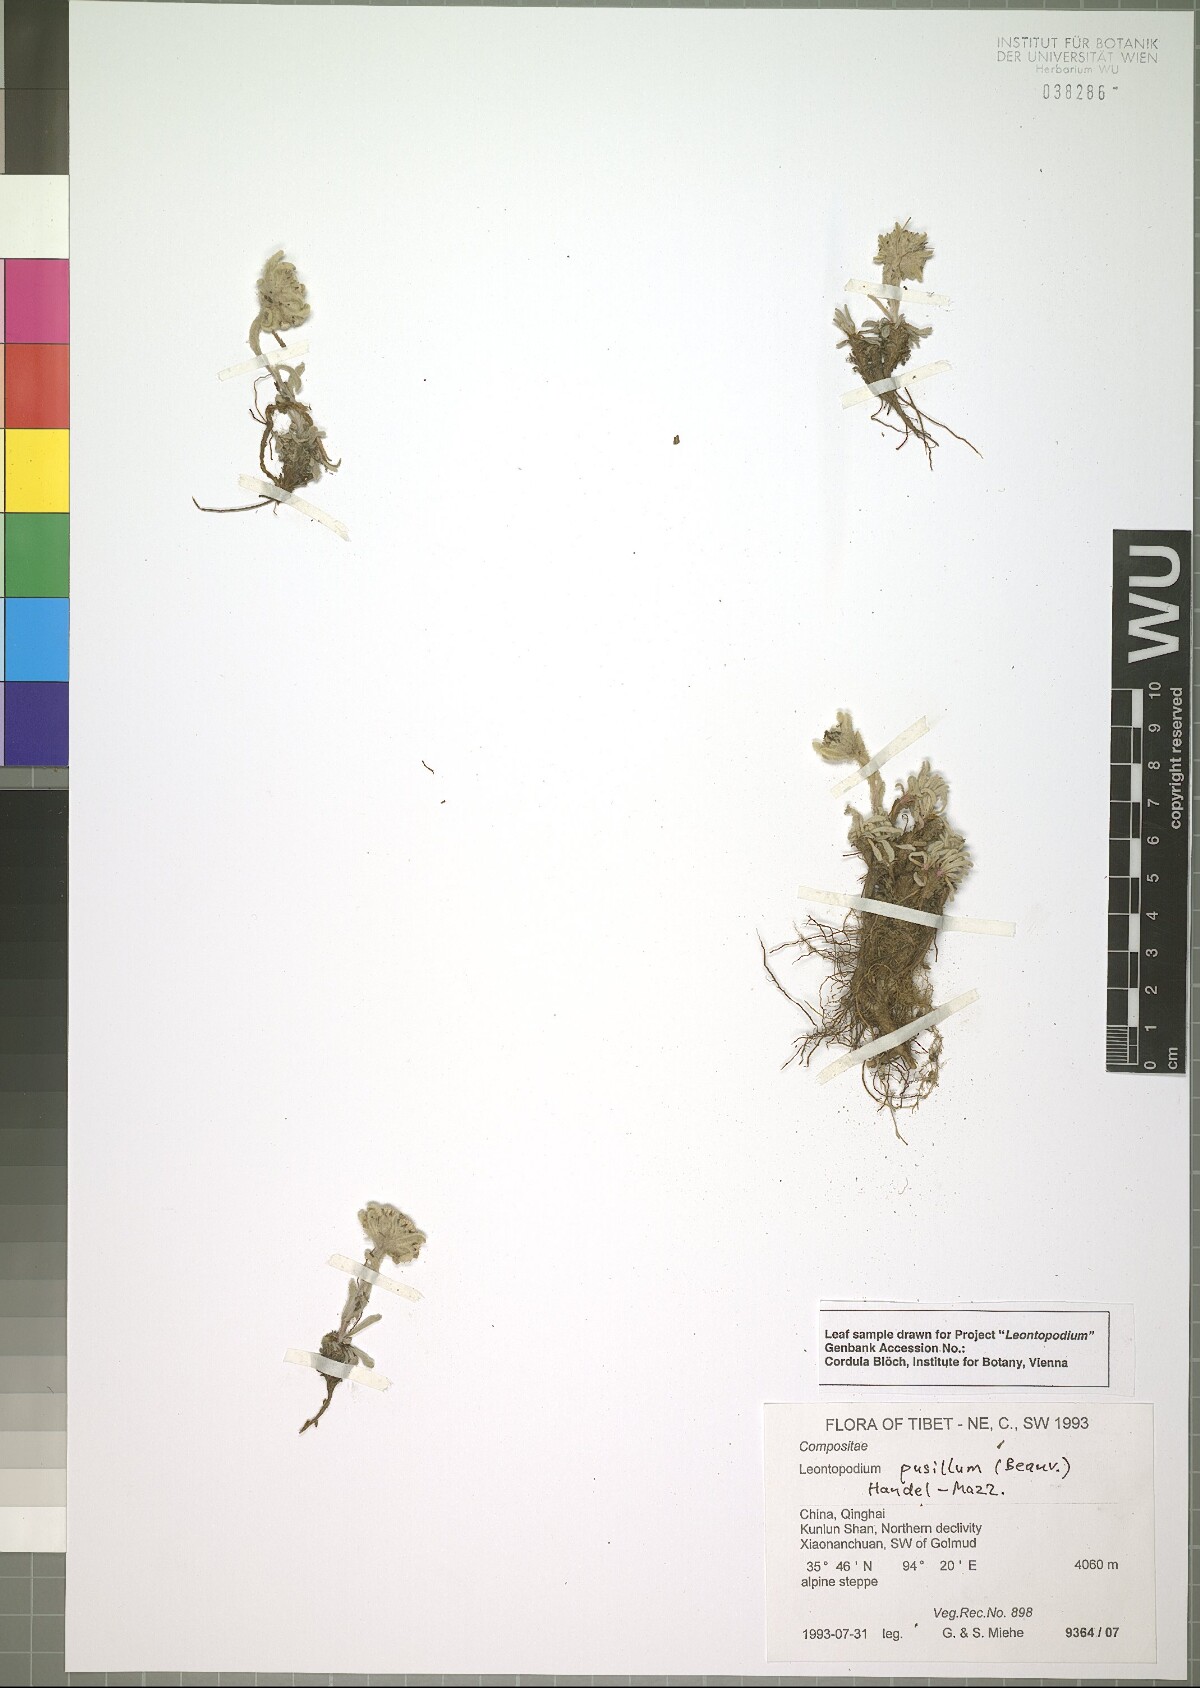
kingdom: Plantae
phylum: Tracheophyta
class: Magnoliopsida
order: Asterales
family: Asteraceae
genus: Leontopodium
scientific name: Leontopodium pusillum
